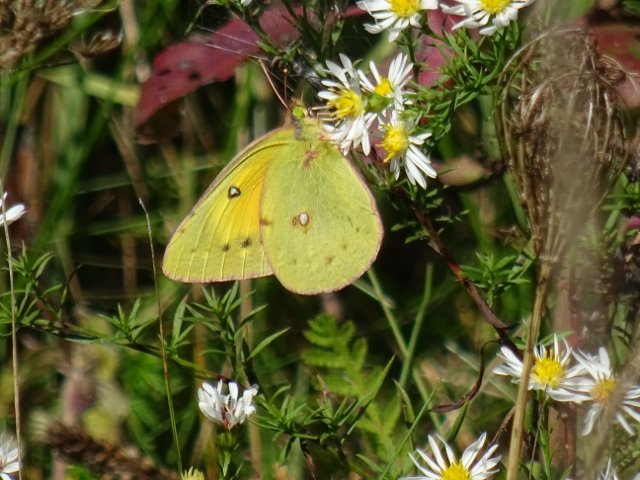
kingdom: Animalia
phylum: Arthropoda
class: Insecta
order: Lepidoptera
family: Pieridae
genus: Colias
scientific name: Colias eurytheme
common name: Orange Sulphur
